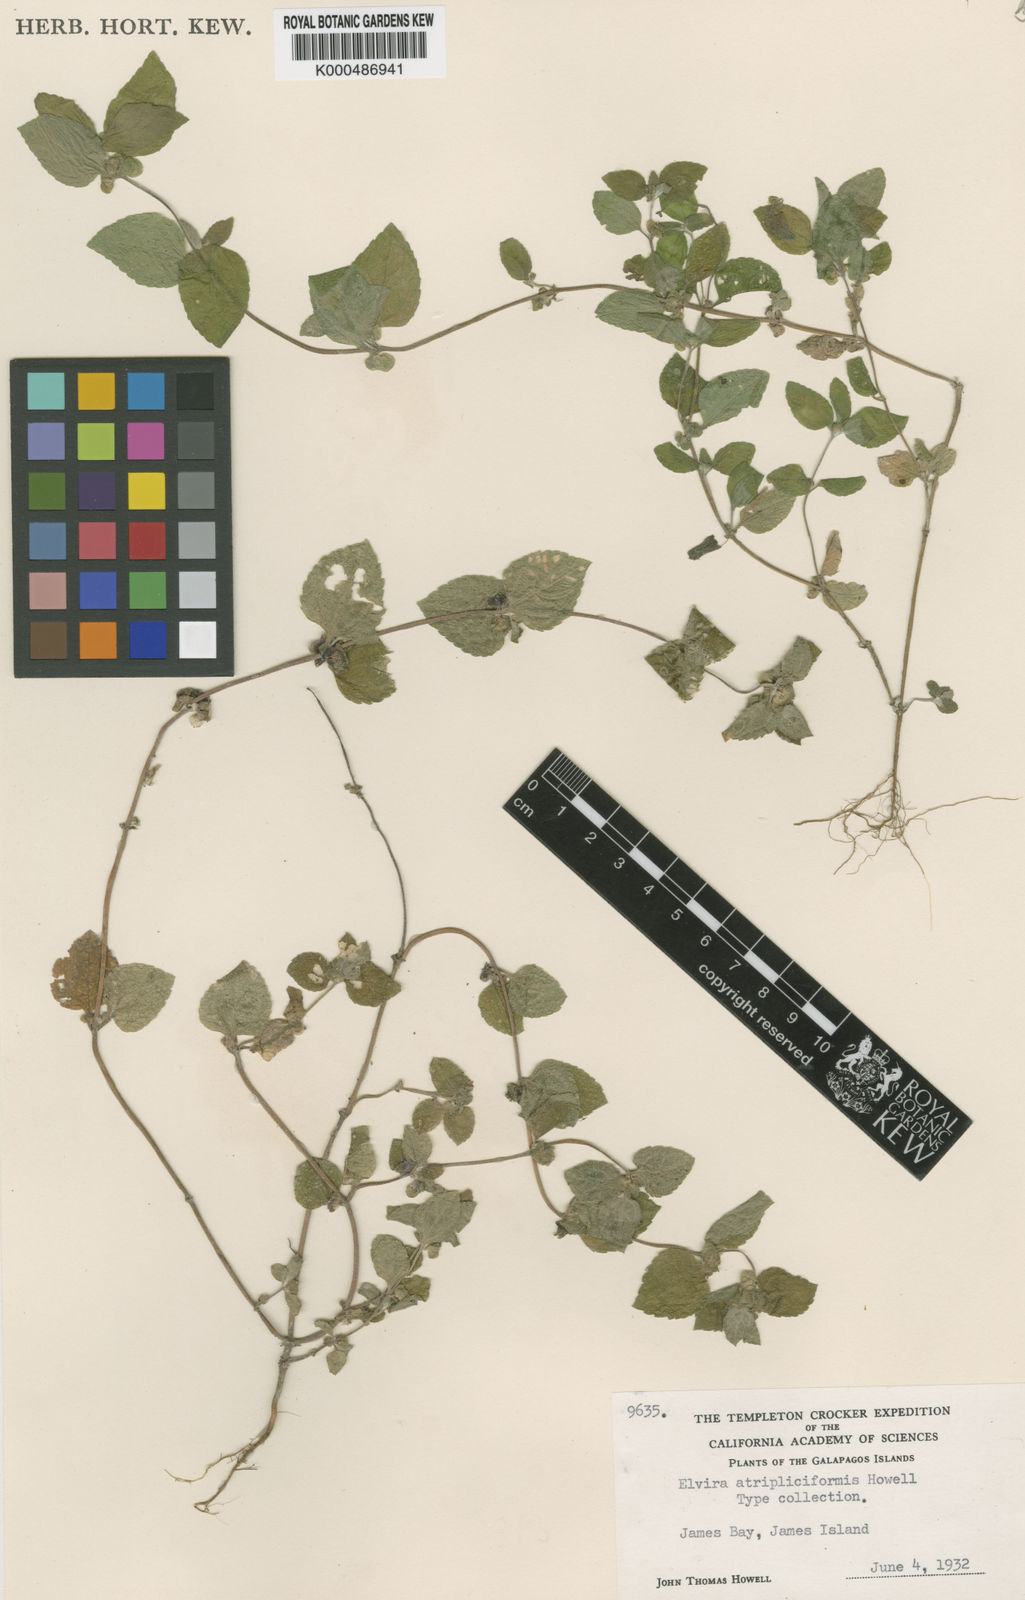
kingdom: Plantae
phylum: Tracheophyta
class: Magnoliopsida
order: Asterales
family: Asteraceae
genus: Delilia
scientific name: Delilia
